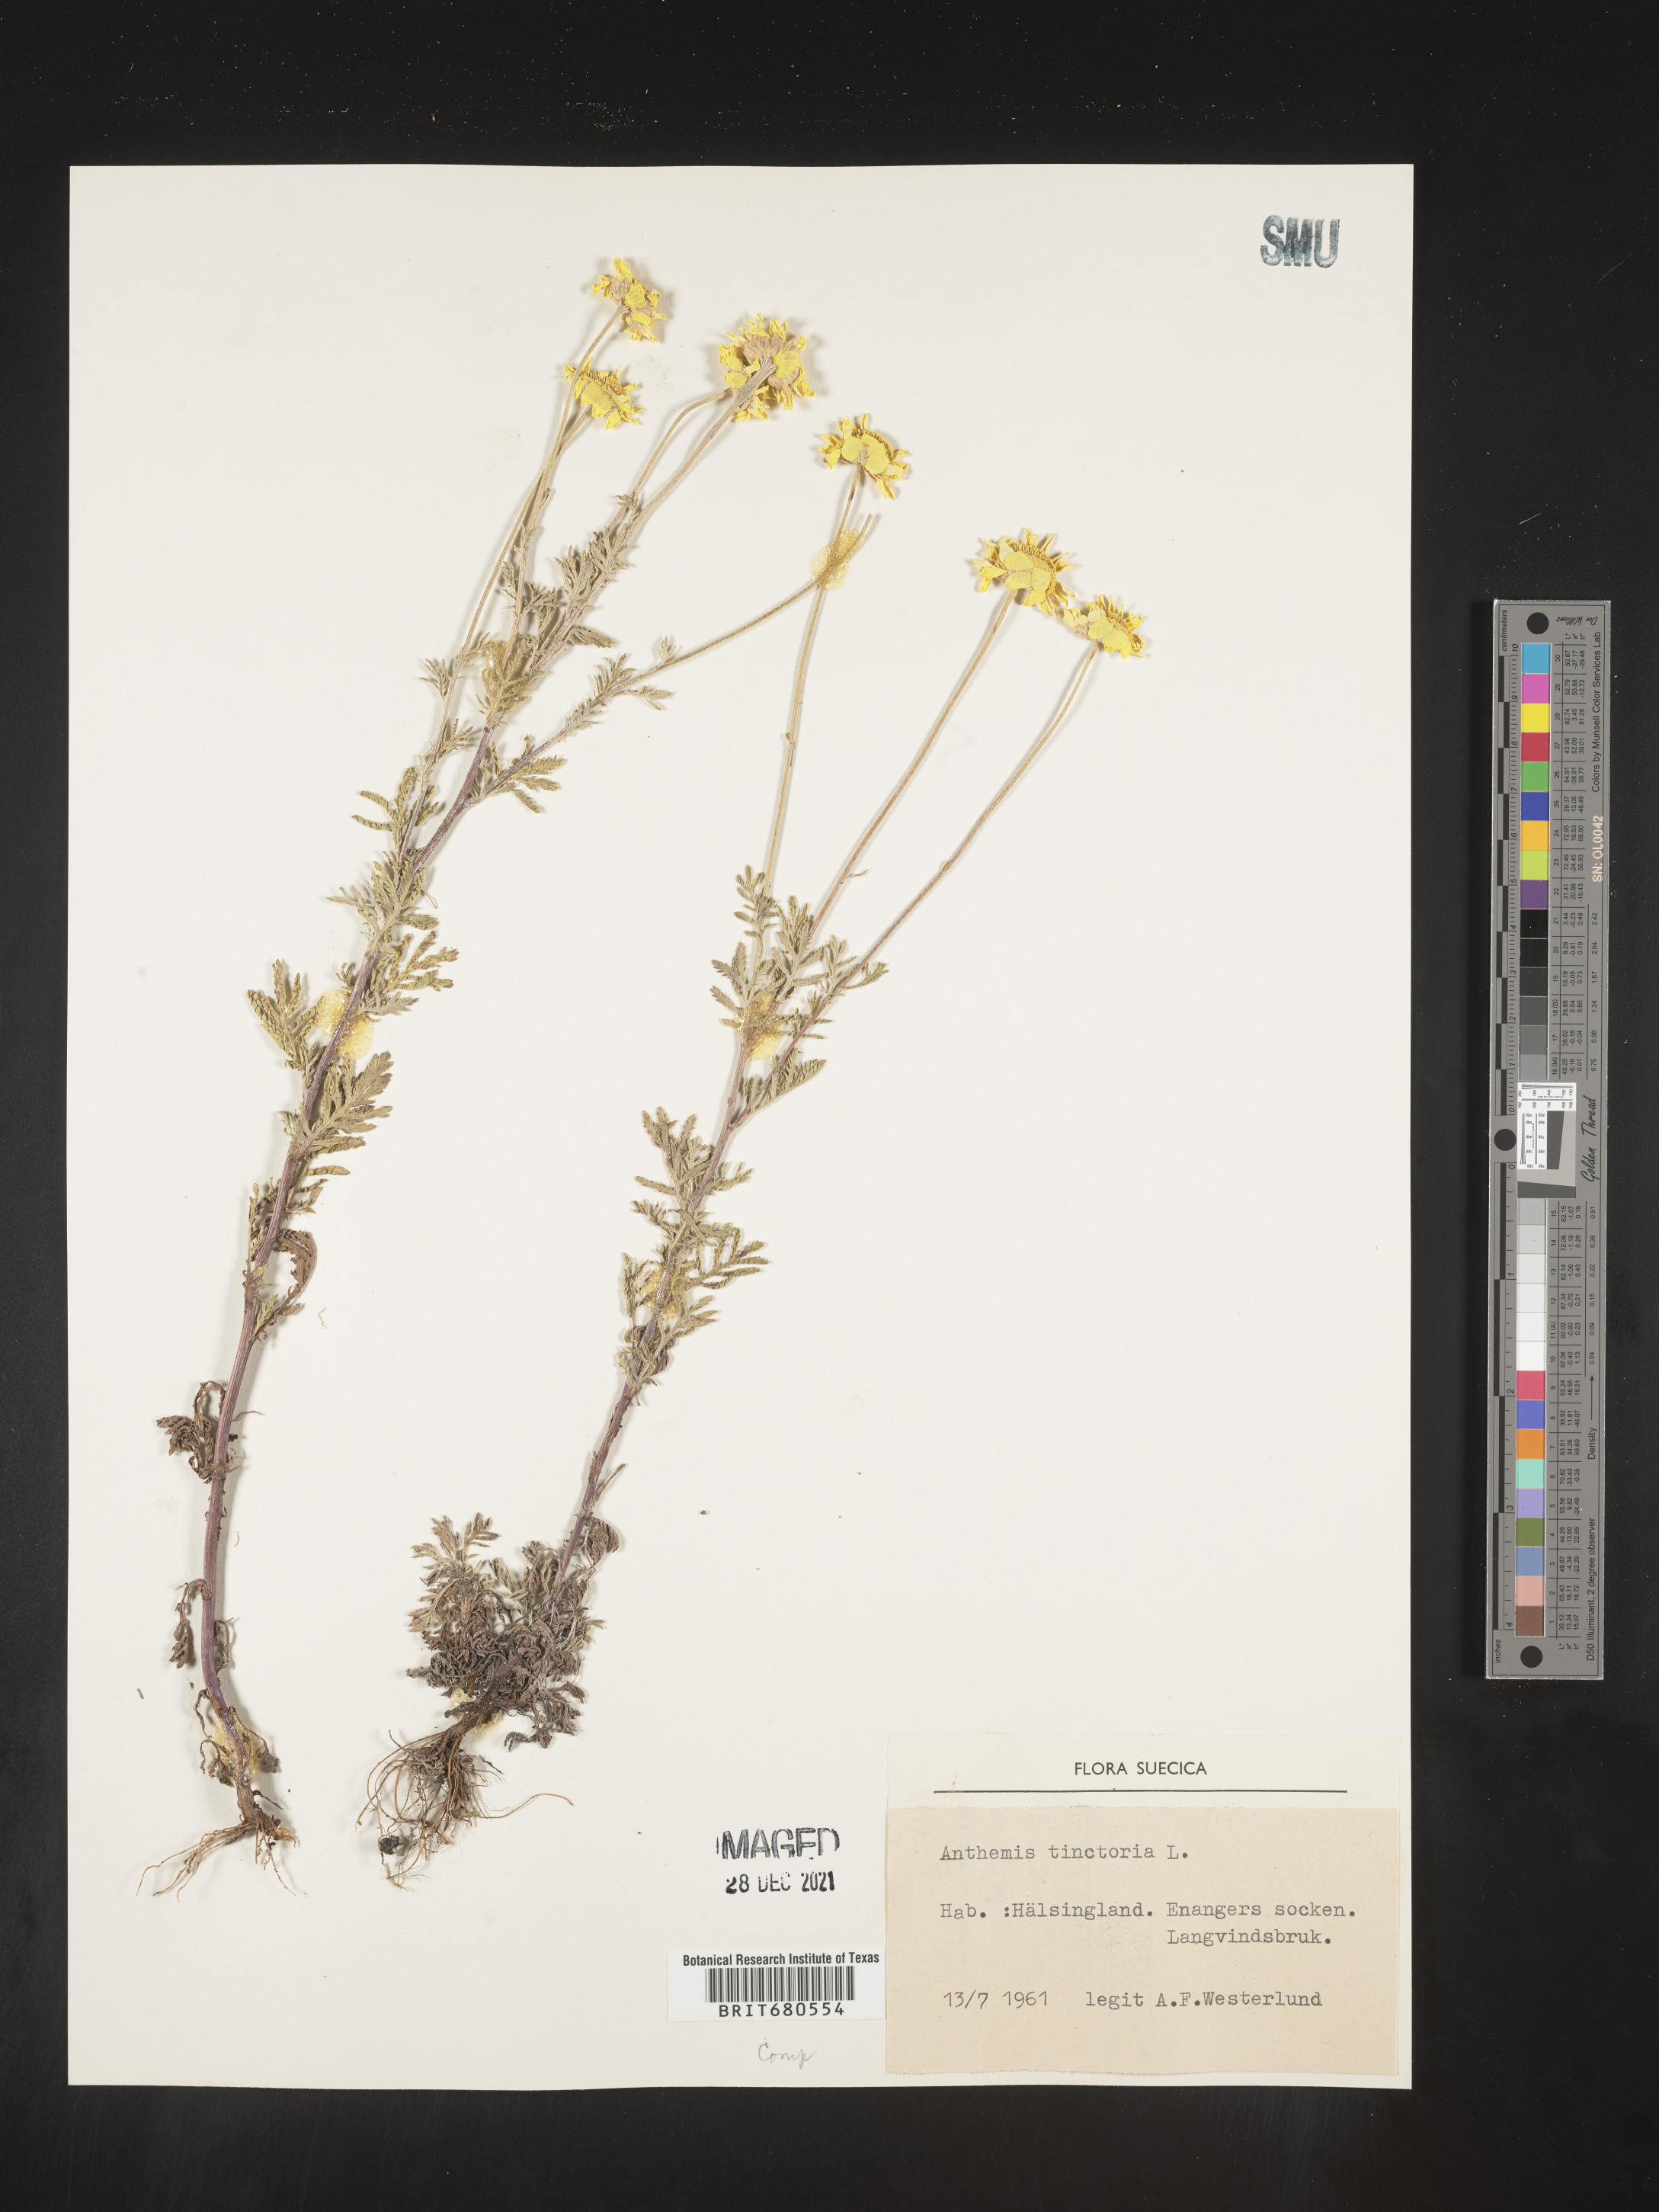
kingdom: Plantae
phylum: Tracheophyta
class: Magnoliopsida
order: Asterales
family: Asteraceae
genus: Anthemis
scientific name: Anthemis
